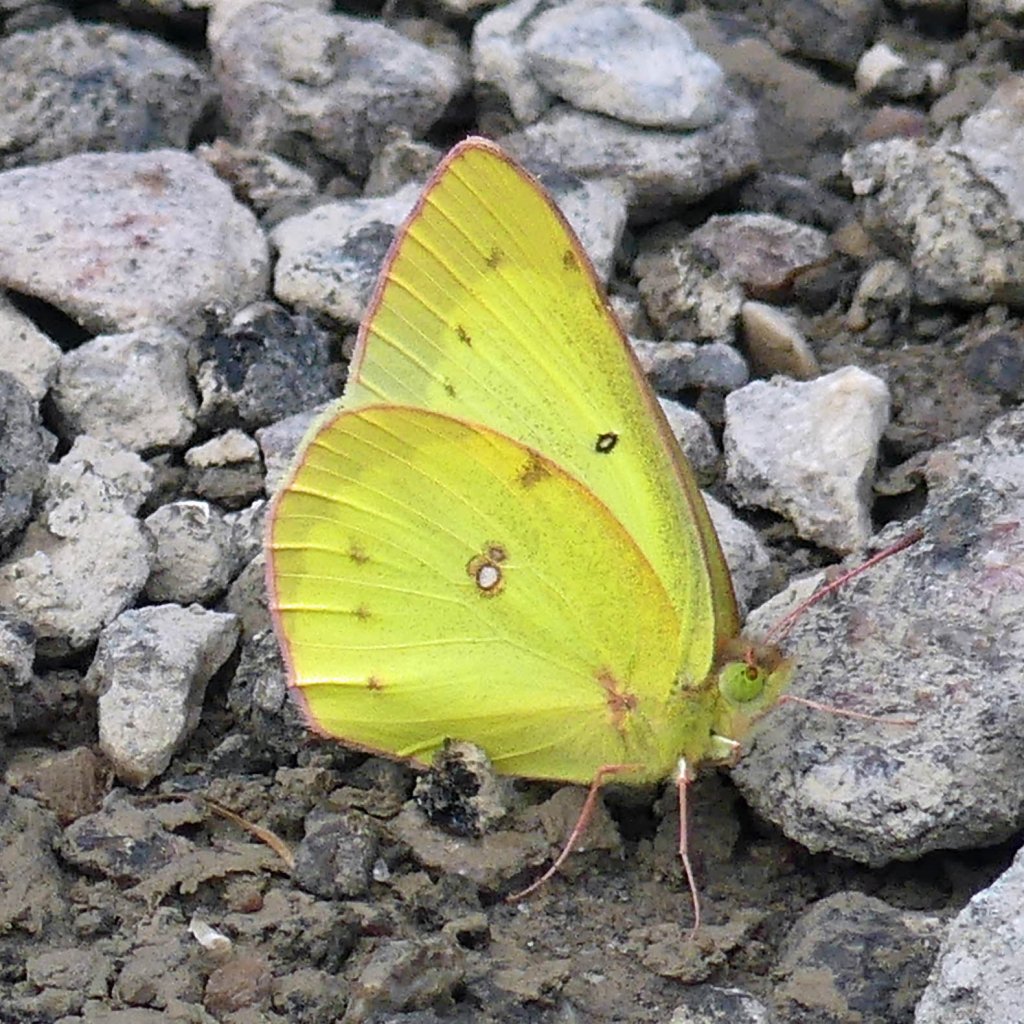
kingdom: Animalia
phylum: Arthropoda
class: Insecta
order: Lepidoptera
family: Pieridae
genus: Colias
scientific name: Colias philodice
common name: Clouded Sulphur
